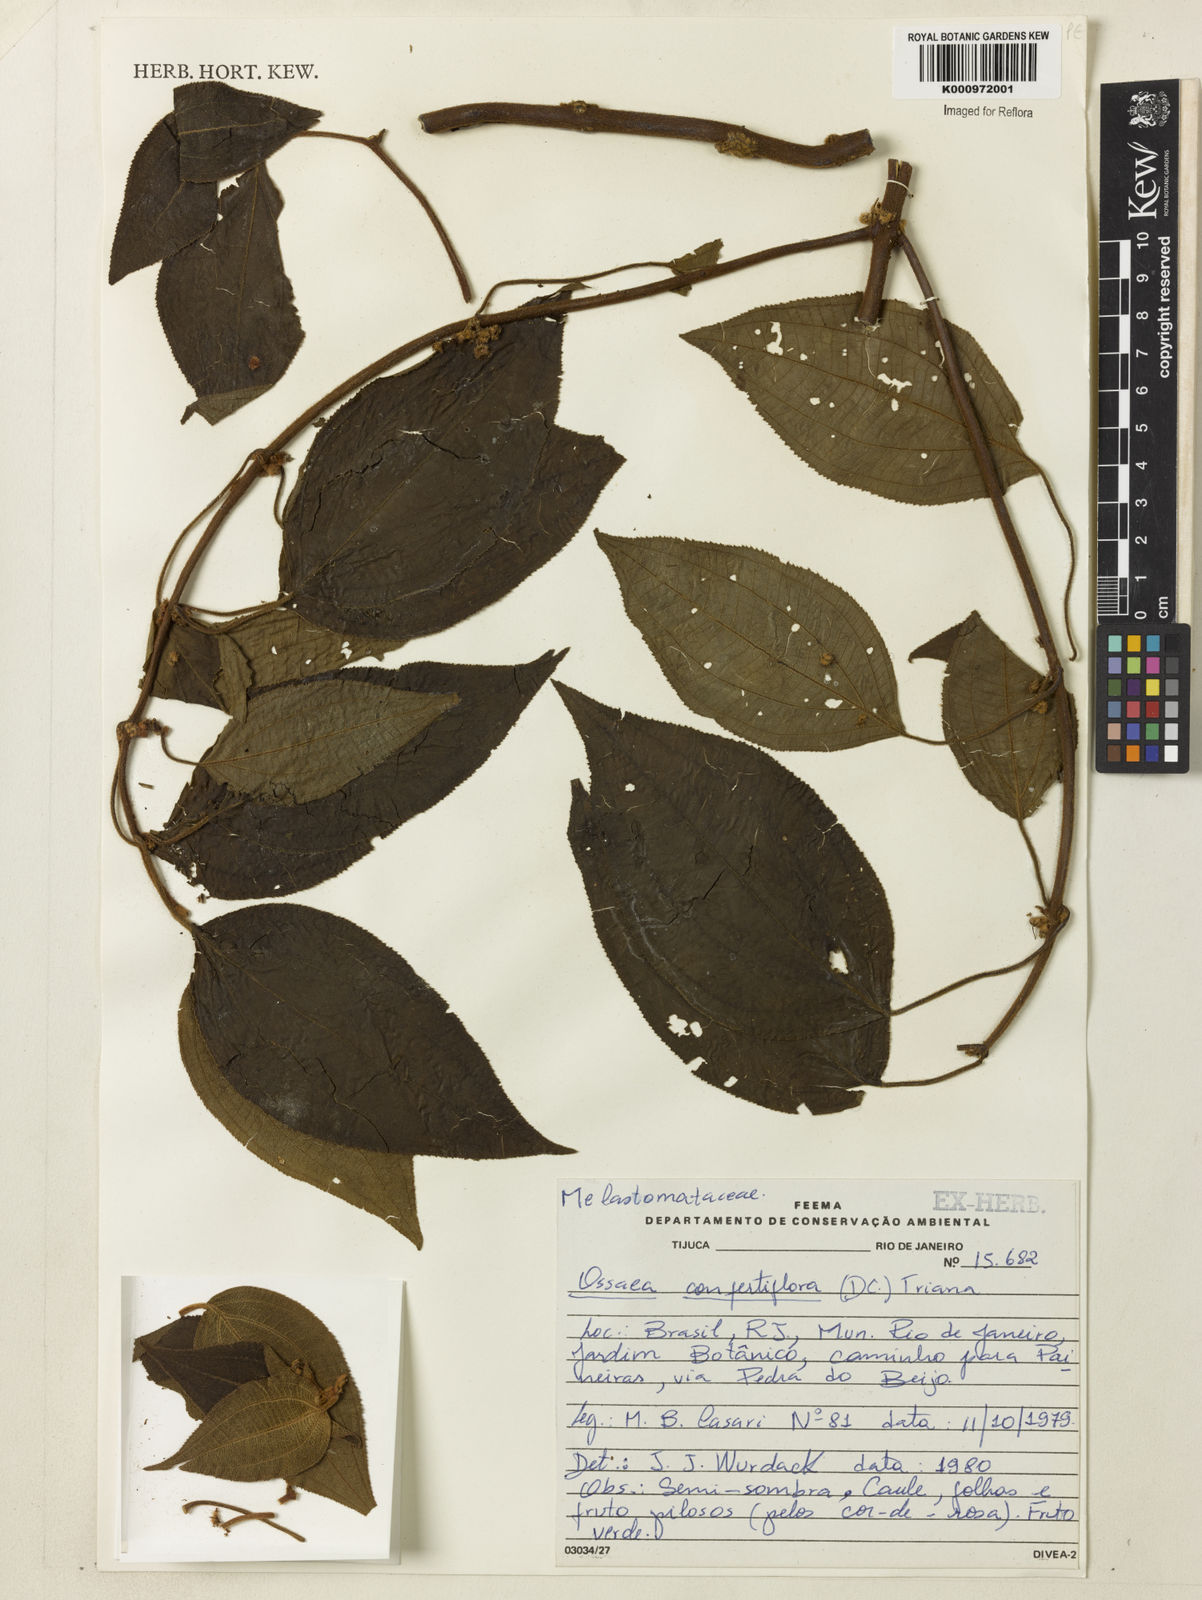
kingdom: Plantae
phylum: Tracheophyta
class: Magnoliopsida
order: Myrtales
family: Melastomataceae
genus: Miconia
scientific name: Miconia rubella
